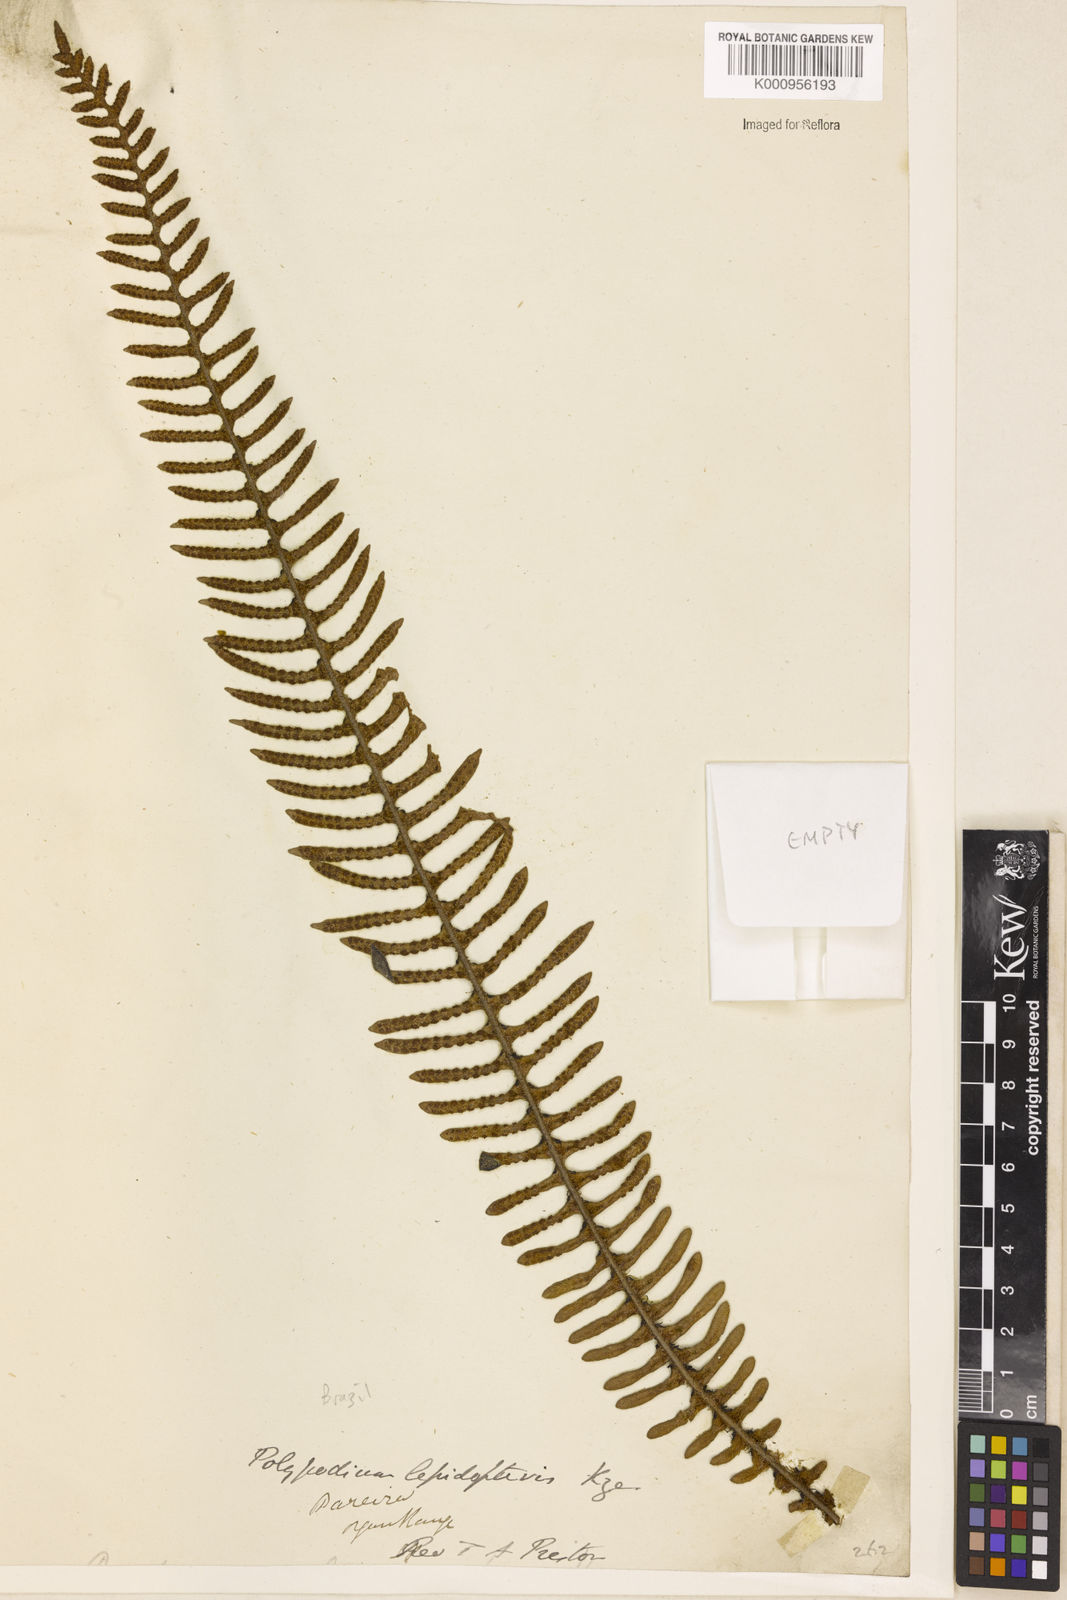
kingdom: Plantae
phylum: Tracheophyta
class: Polypodiopsida
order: Polypodiales
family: Polypodiaceae
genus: Pleopeltis
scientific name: Pleopeltis lepidopteris
